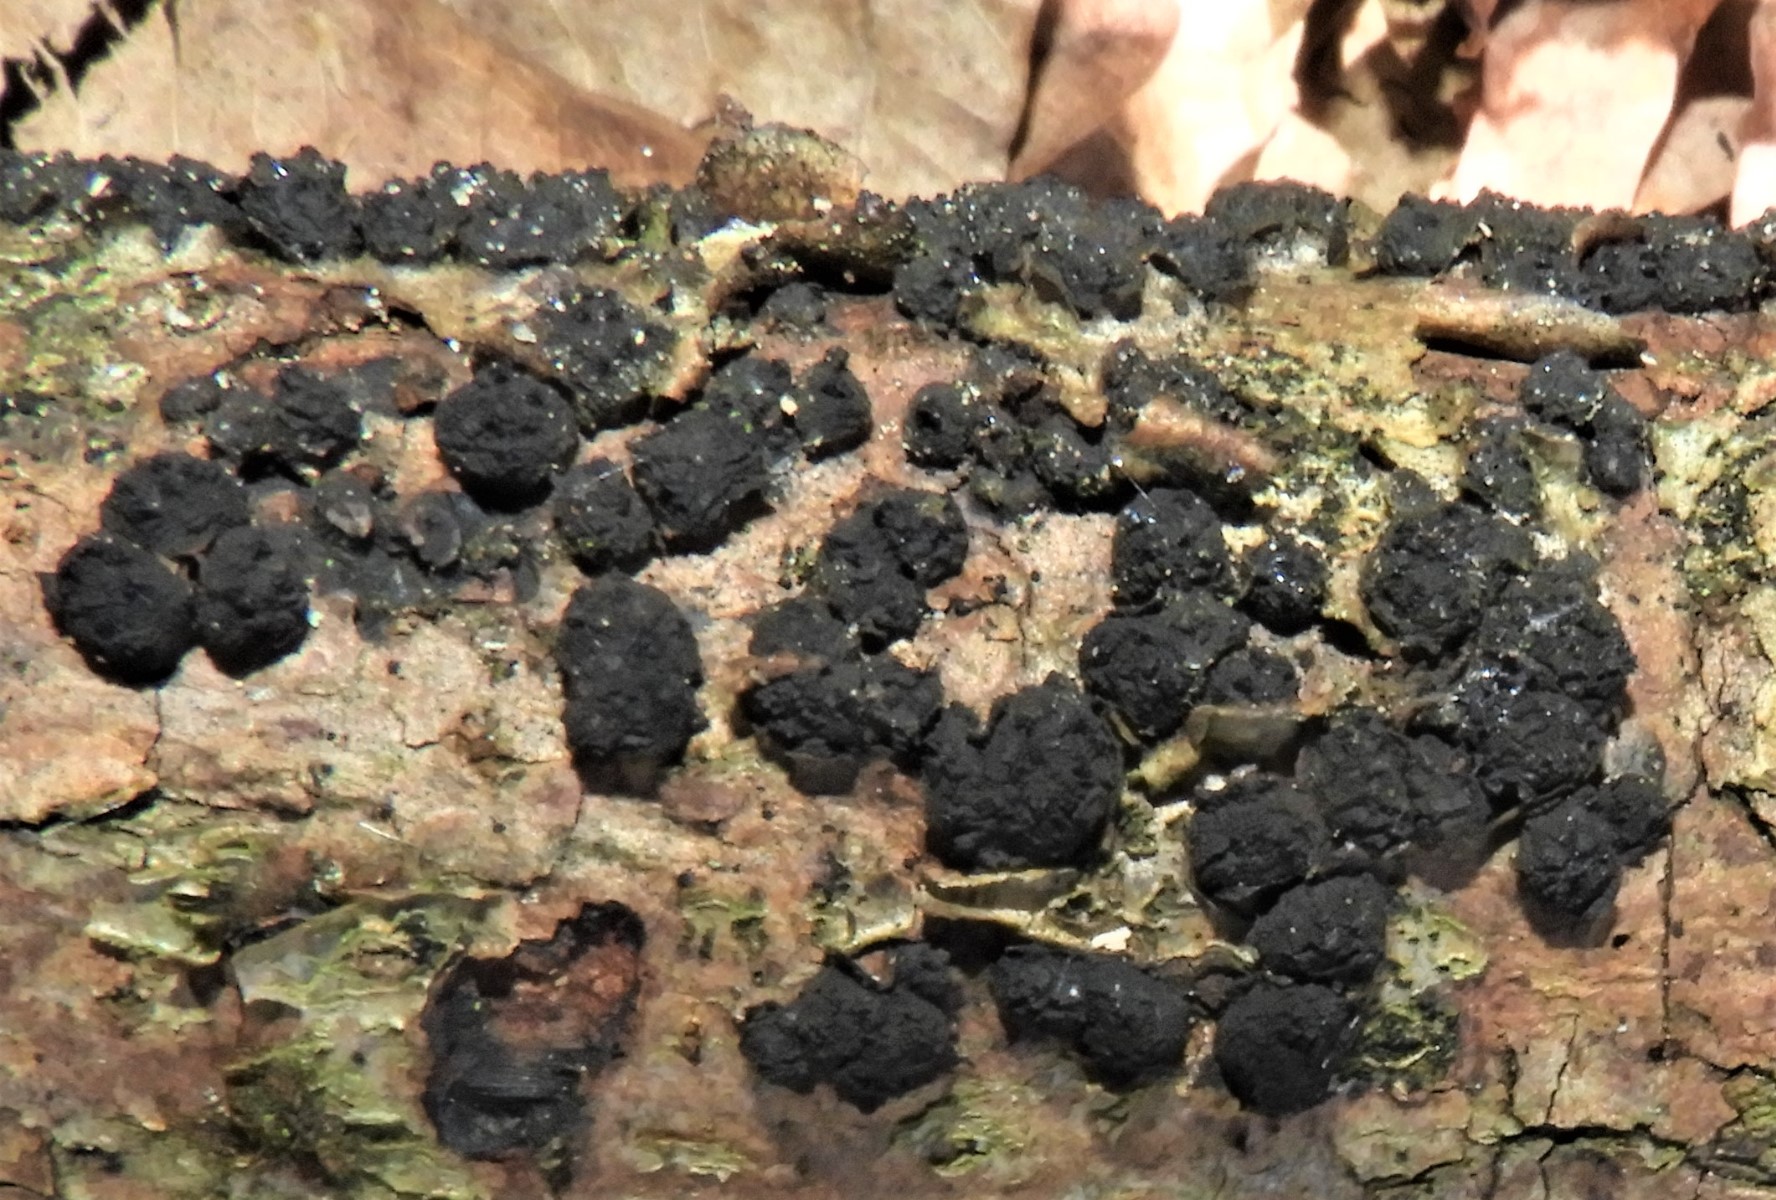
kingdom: Fungi
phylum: Ascomycota
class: Sordariomycetes
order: Xylariales
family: Diatrypaceae
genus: Diatrypella
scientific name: Diatrypella quercina
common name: ege-kulskorpe
